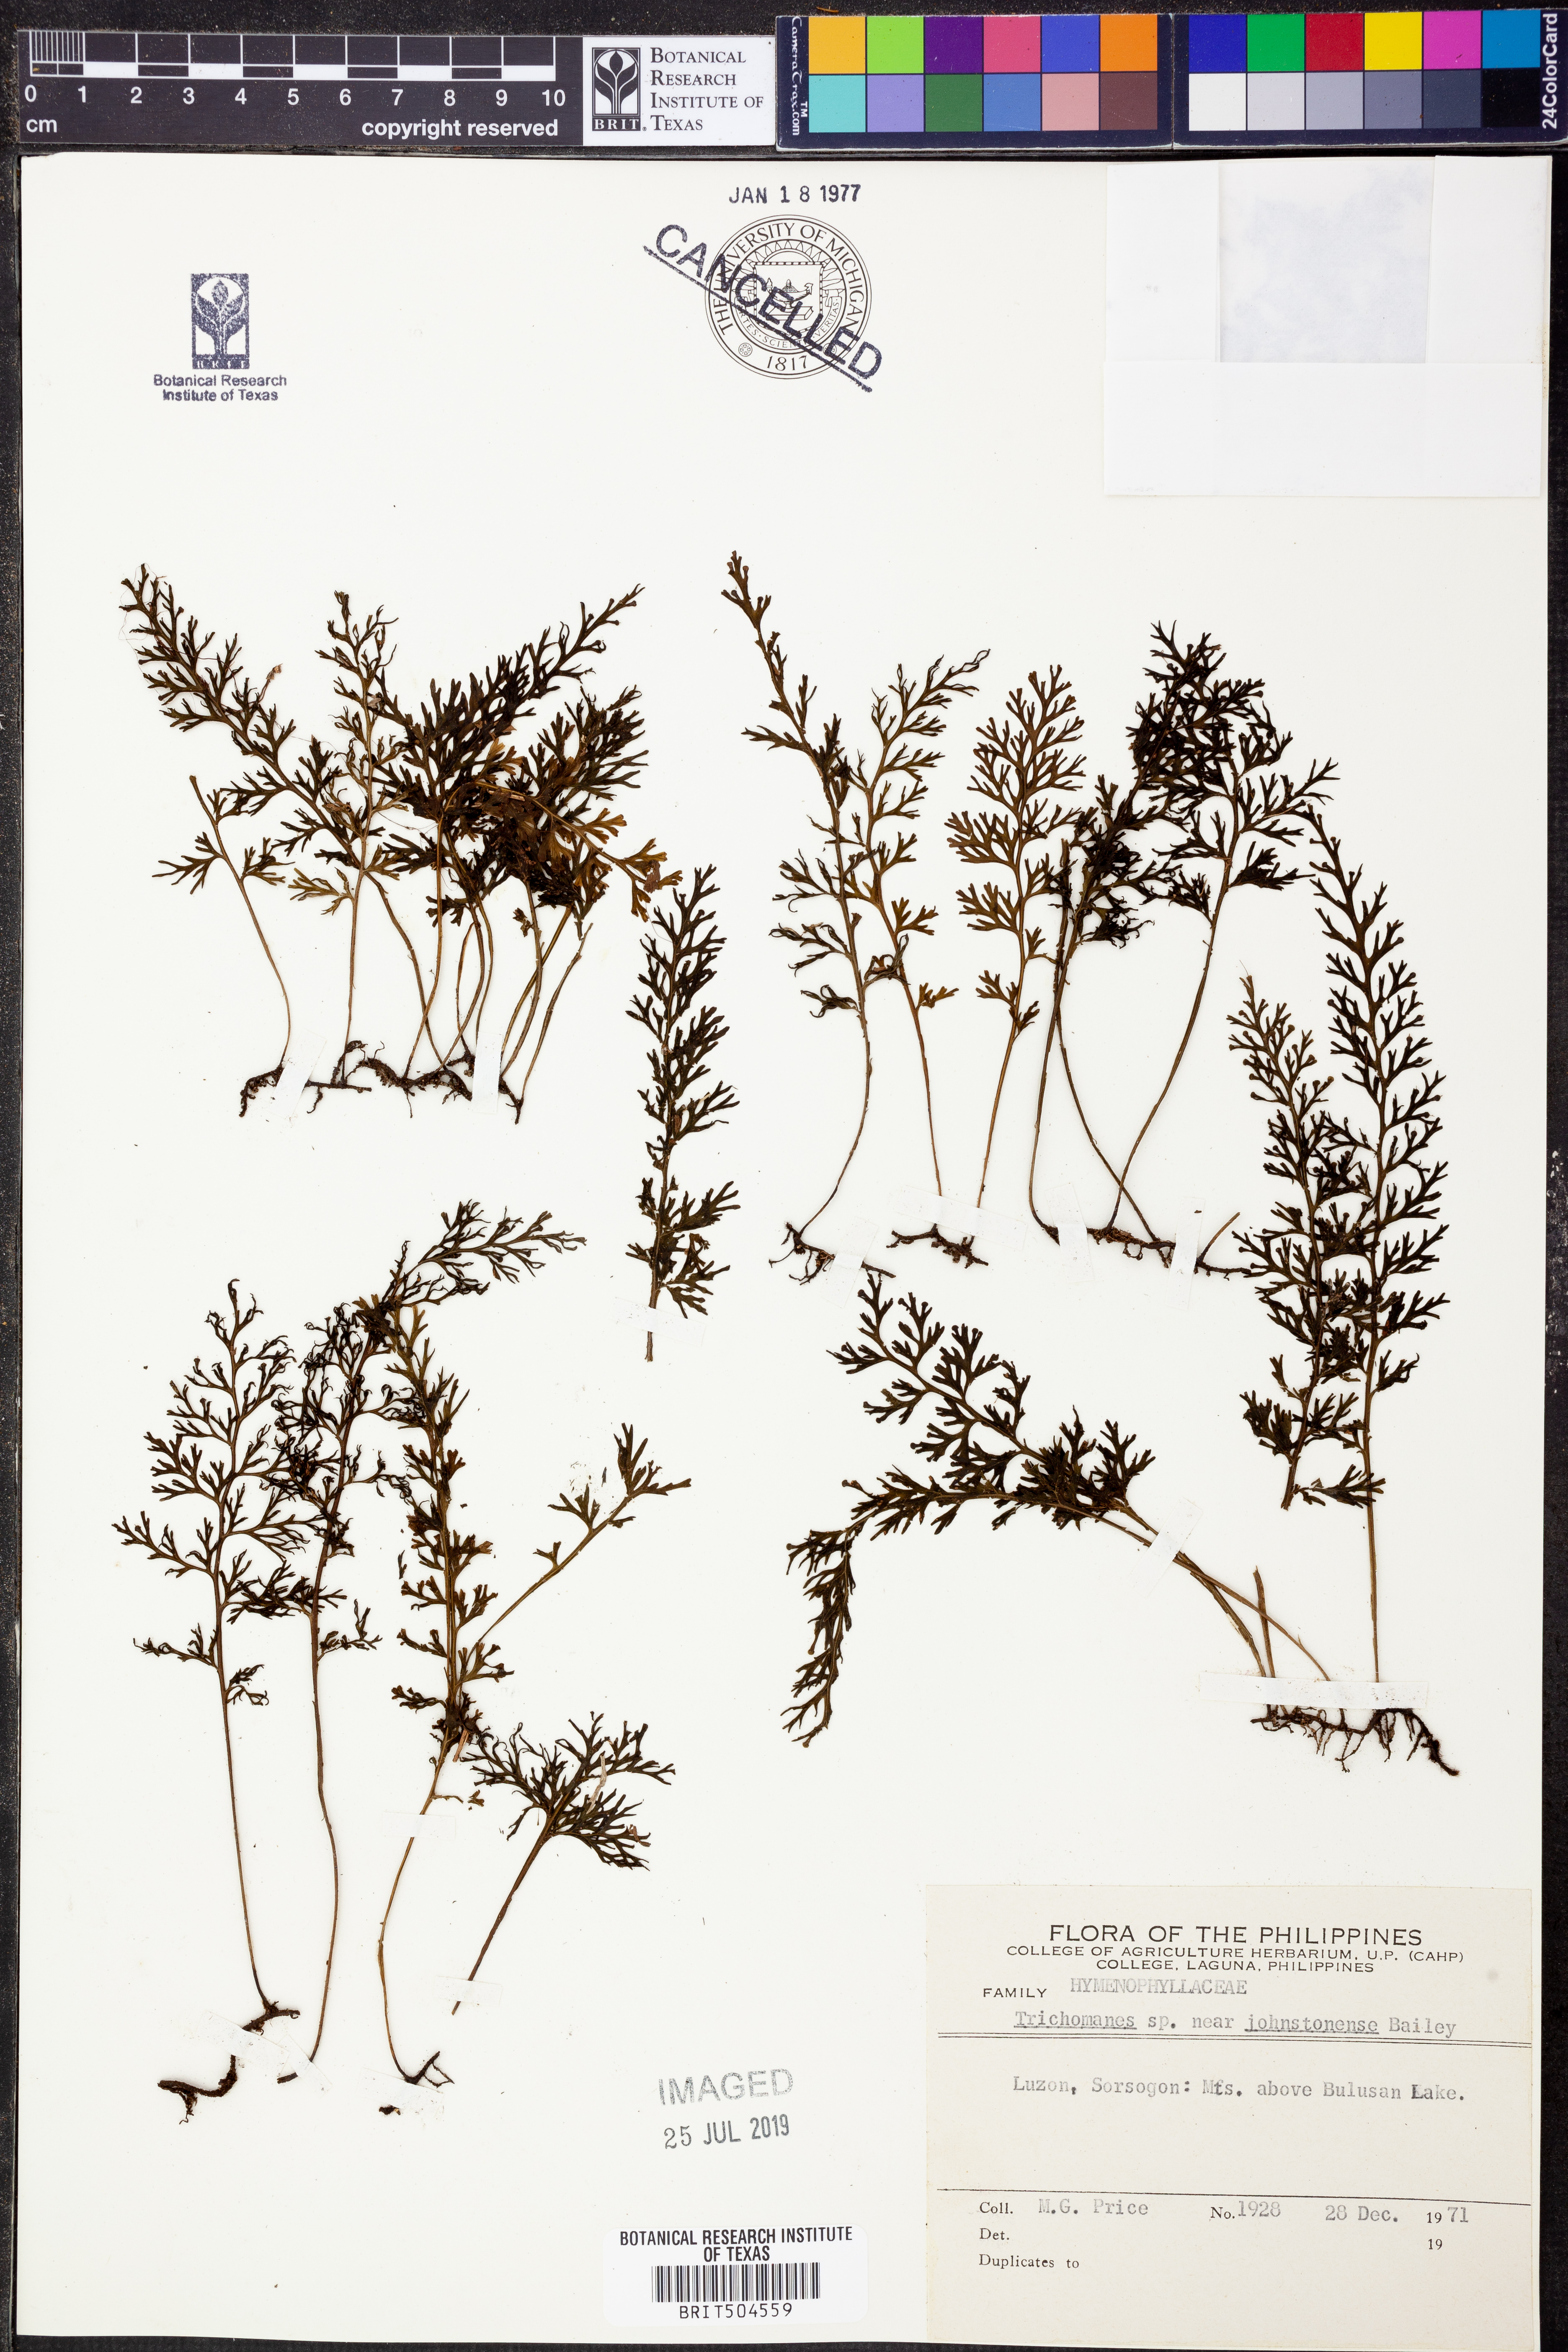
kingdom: Plantae
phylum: Tracheophyta
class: Polypodiopsida
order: Hymenophyllales
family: Hymenophyllaceae
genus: Trichomanes
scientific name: Trichomanes
